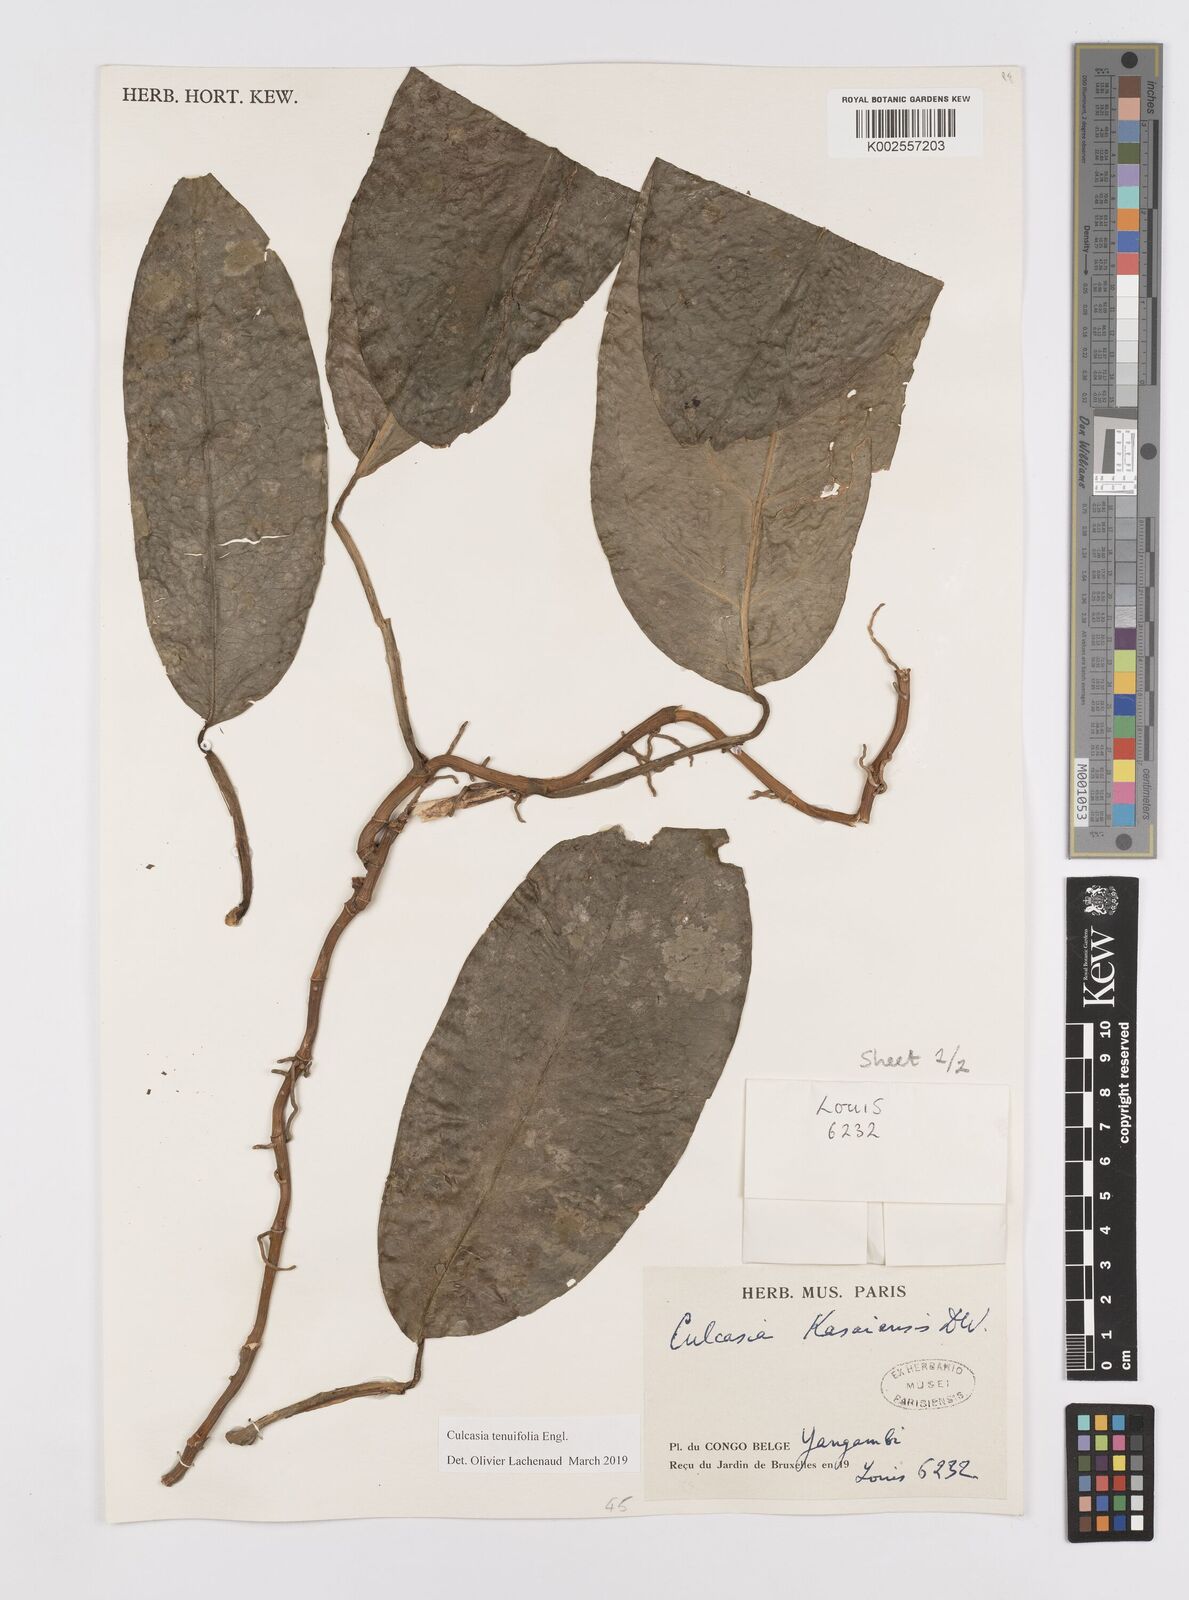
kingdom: Plantae
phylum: Tracheophyta
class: Liliopsida
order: Alismatales
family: Araceae
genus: Culcasia
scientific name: Culcasia tenuifolia
